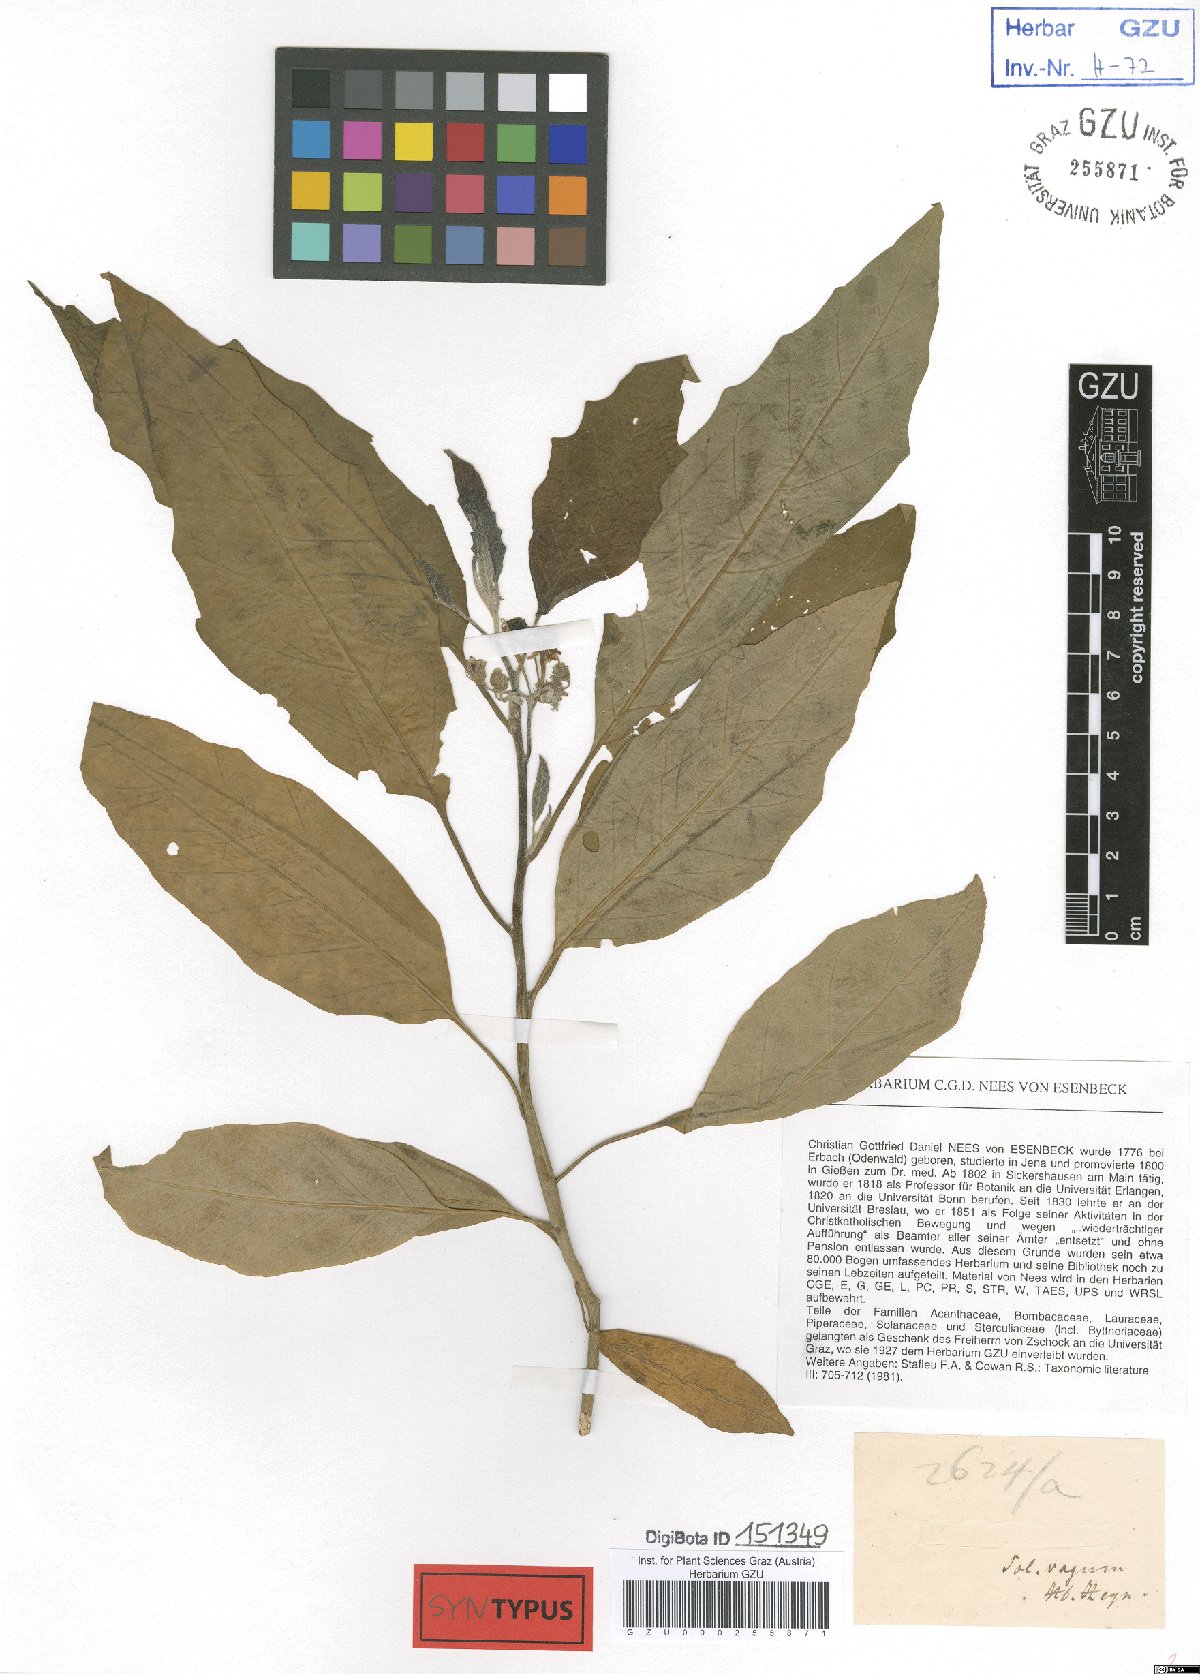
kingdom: Plantae
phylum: Tracheophyta
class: Magnoliopsida
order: Solanales
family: Solanaceae
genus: Solanum
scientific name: Solanum vagum
